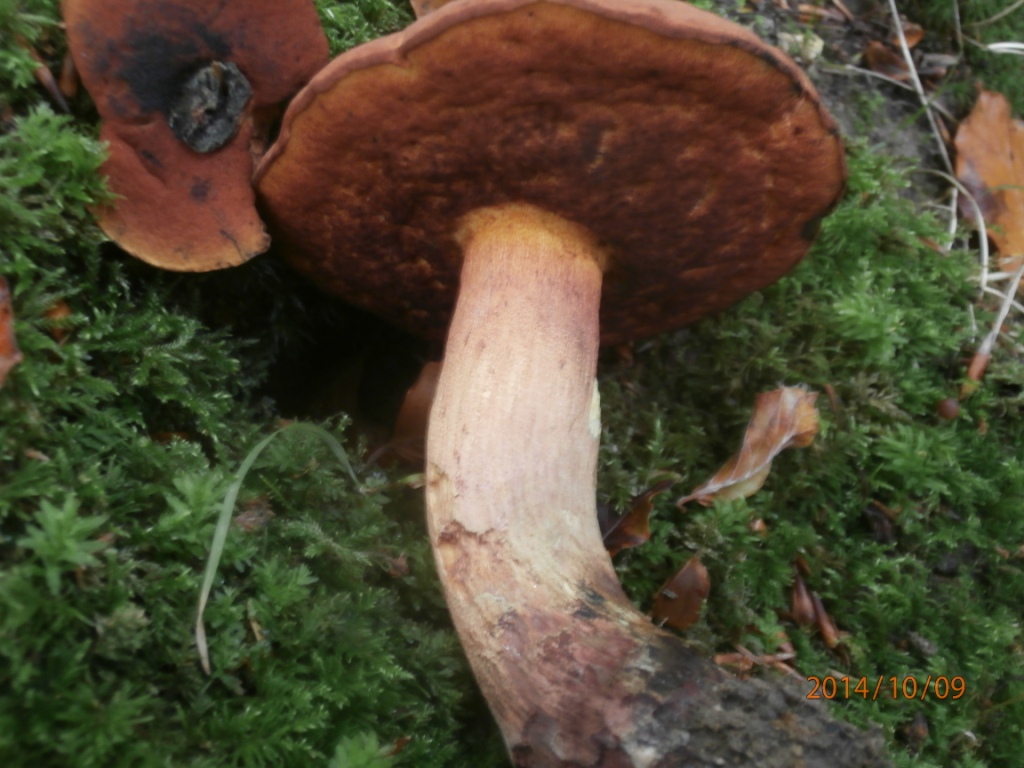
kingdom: Fungi
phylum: Basidiomycota
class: Agaricomycetes
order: Boletales
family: Boletaceae
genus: Suillellus
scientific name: Suillellus queletii
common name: glatstokket indigorørhat
